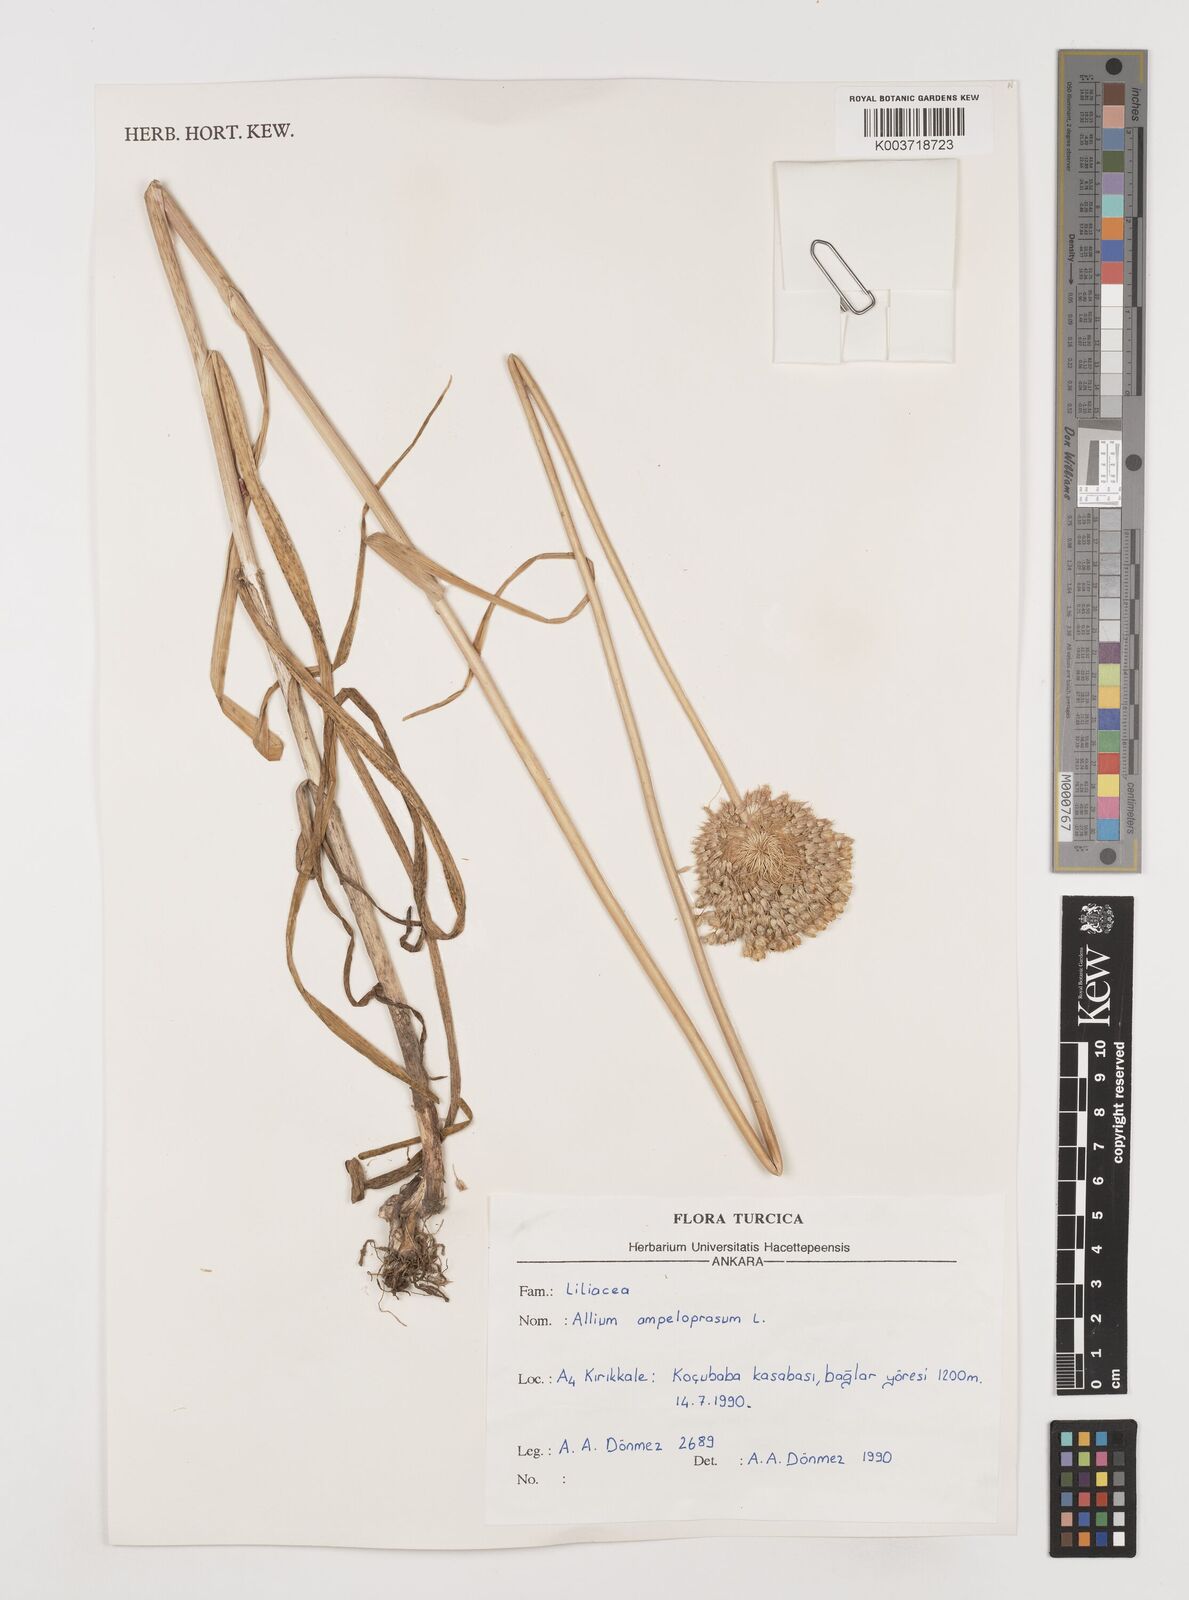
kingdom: Plantae
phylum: Tracheophyta
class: Liliopsida
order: Asparagales
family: Amaryllidaceae
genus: Allium
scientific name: Allium ampeloprasum
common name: Wild leek
